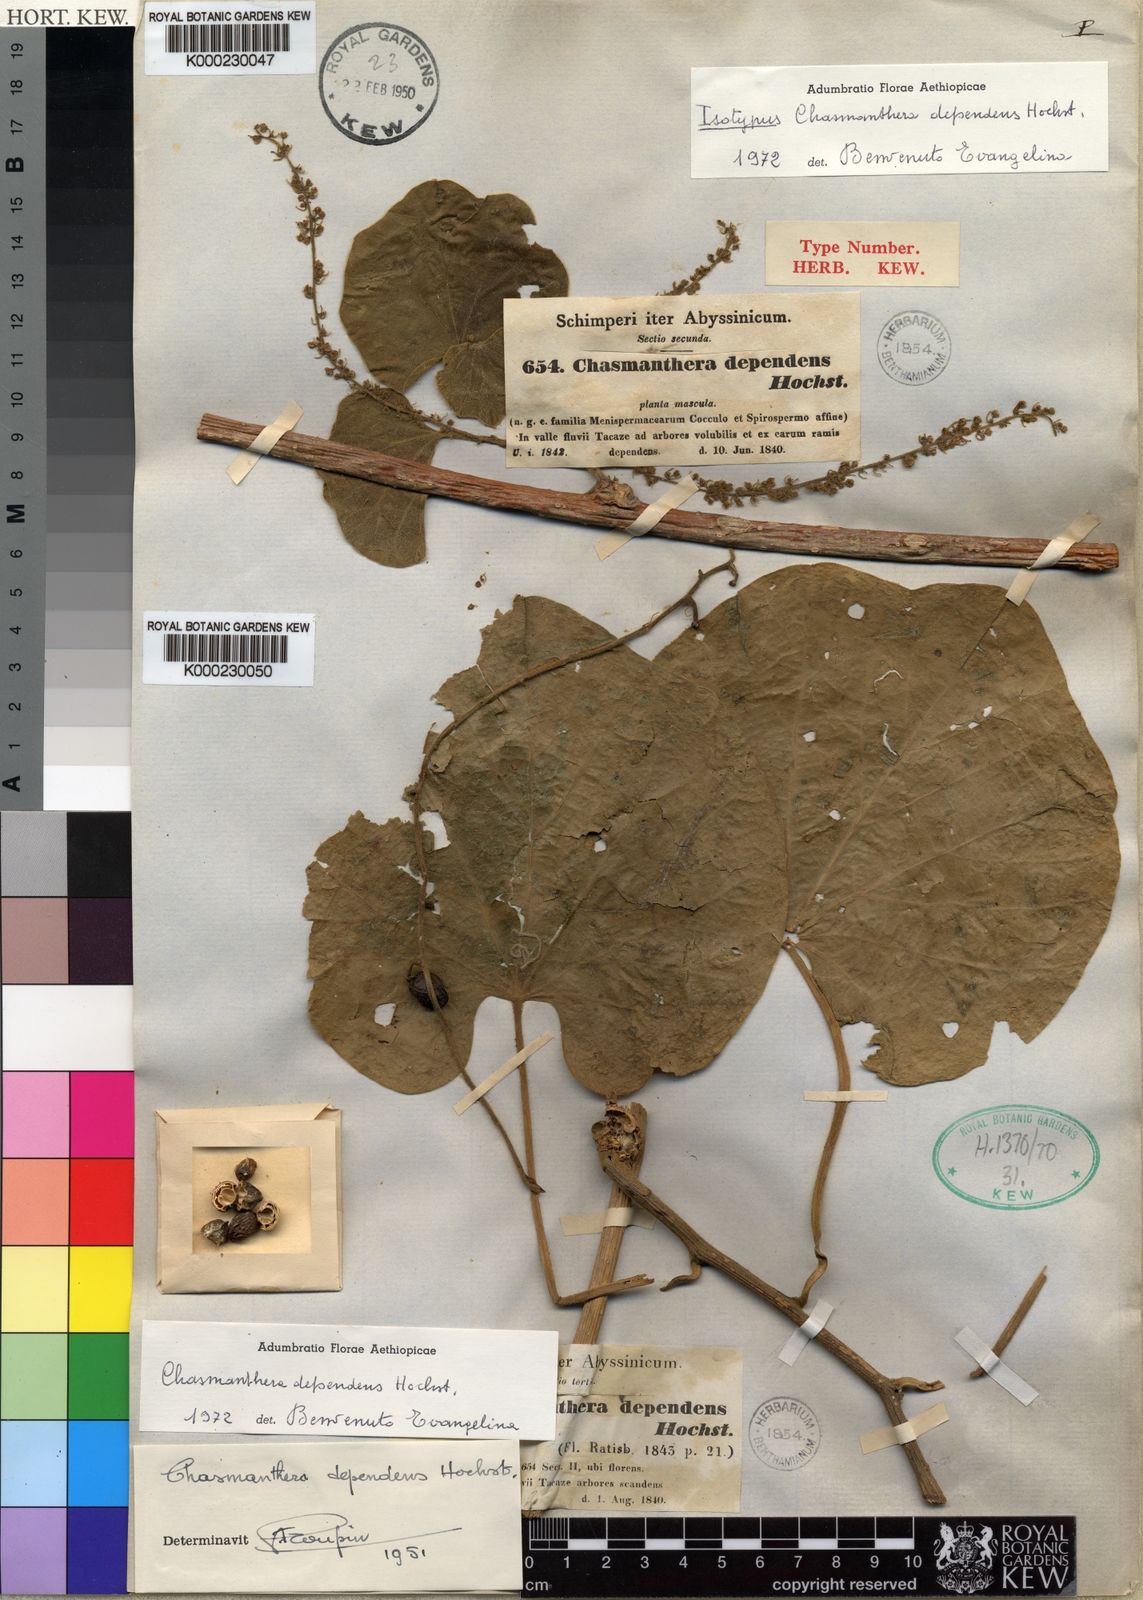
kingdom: Plantae
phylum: Tracheophyta
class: Magnoliopsida
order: Ranunculales
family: Menispermaceae
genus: Chasmanthera
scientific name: Chasmanthera dependens
